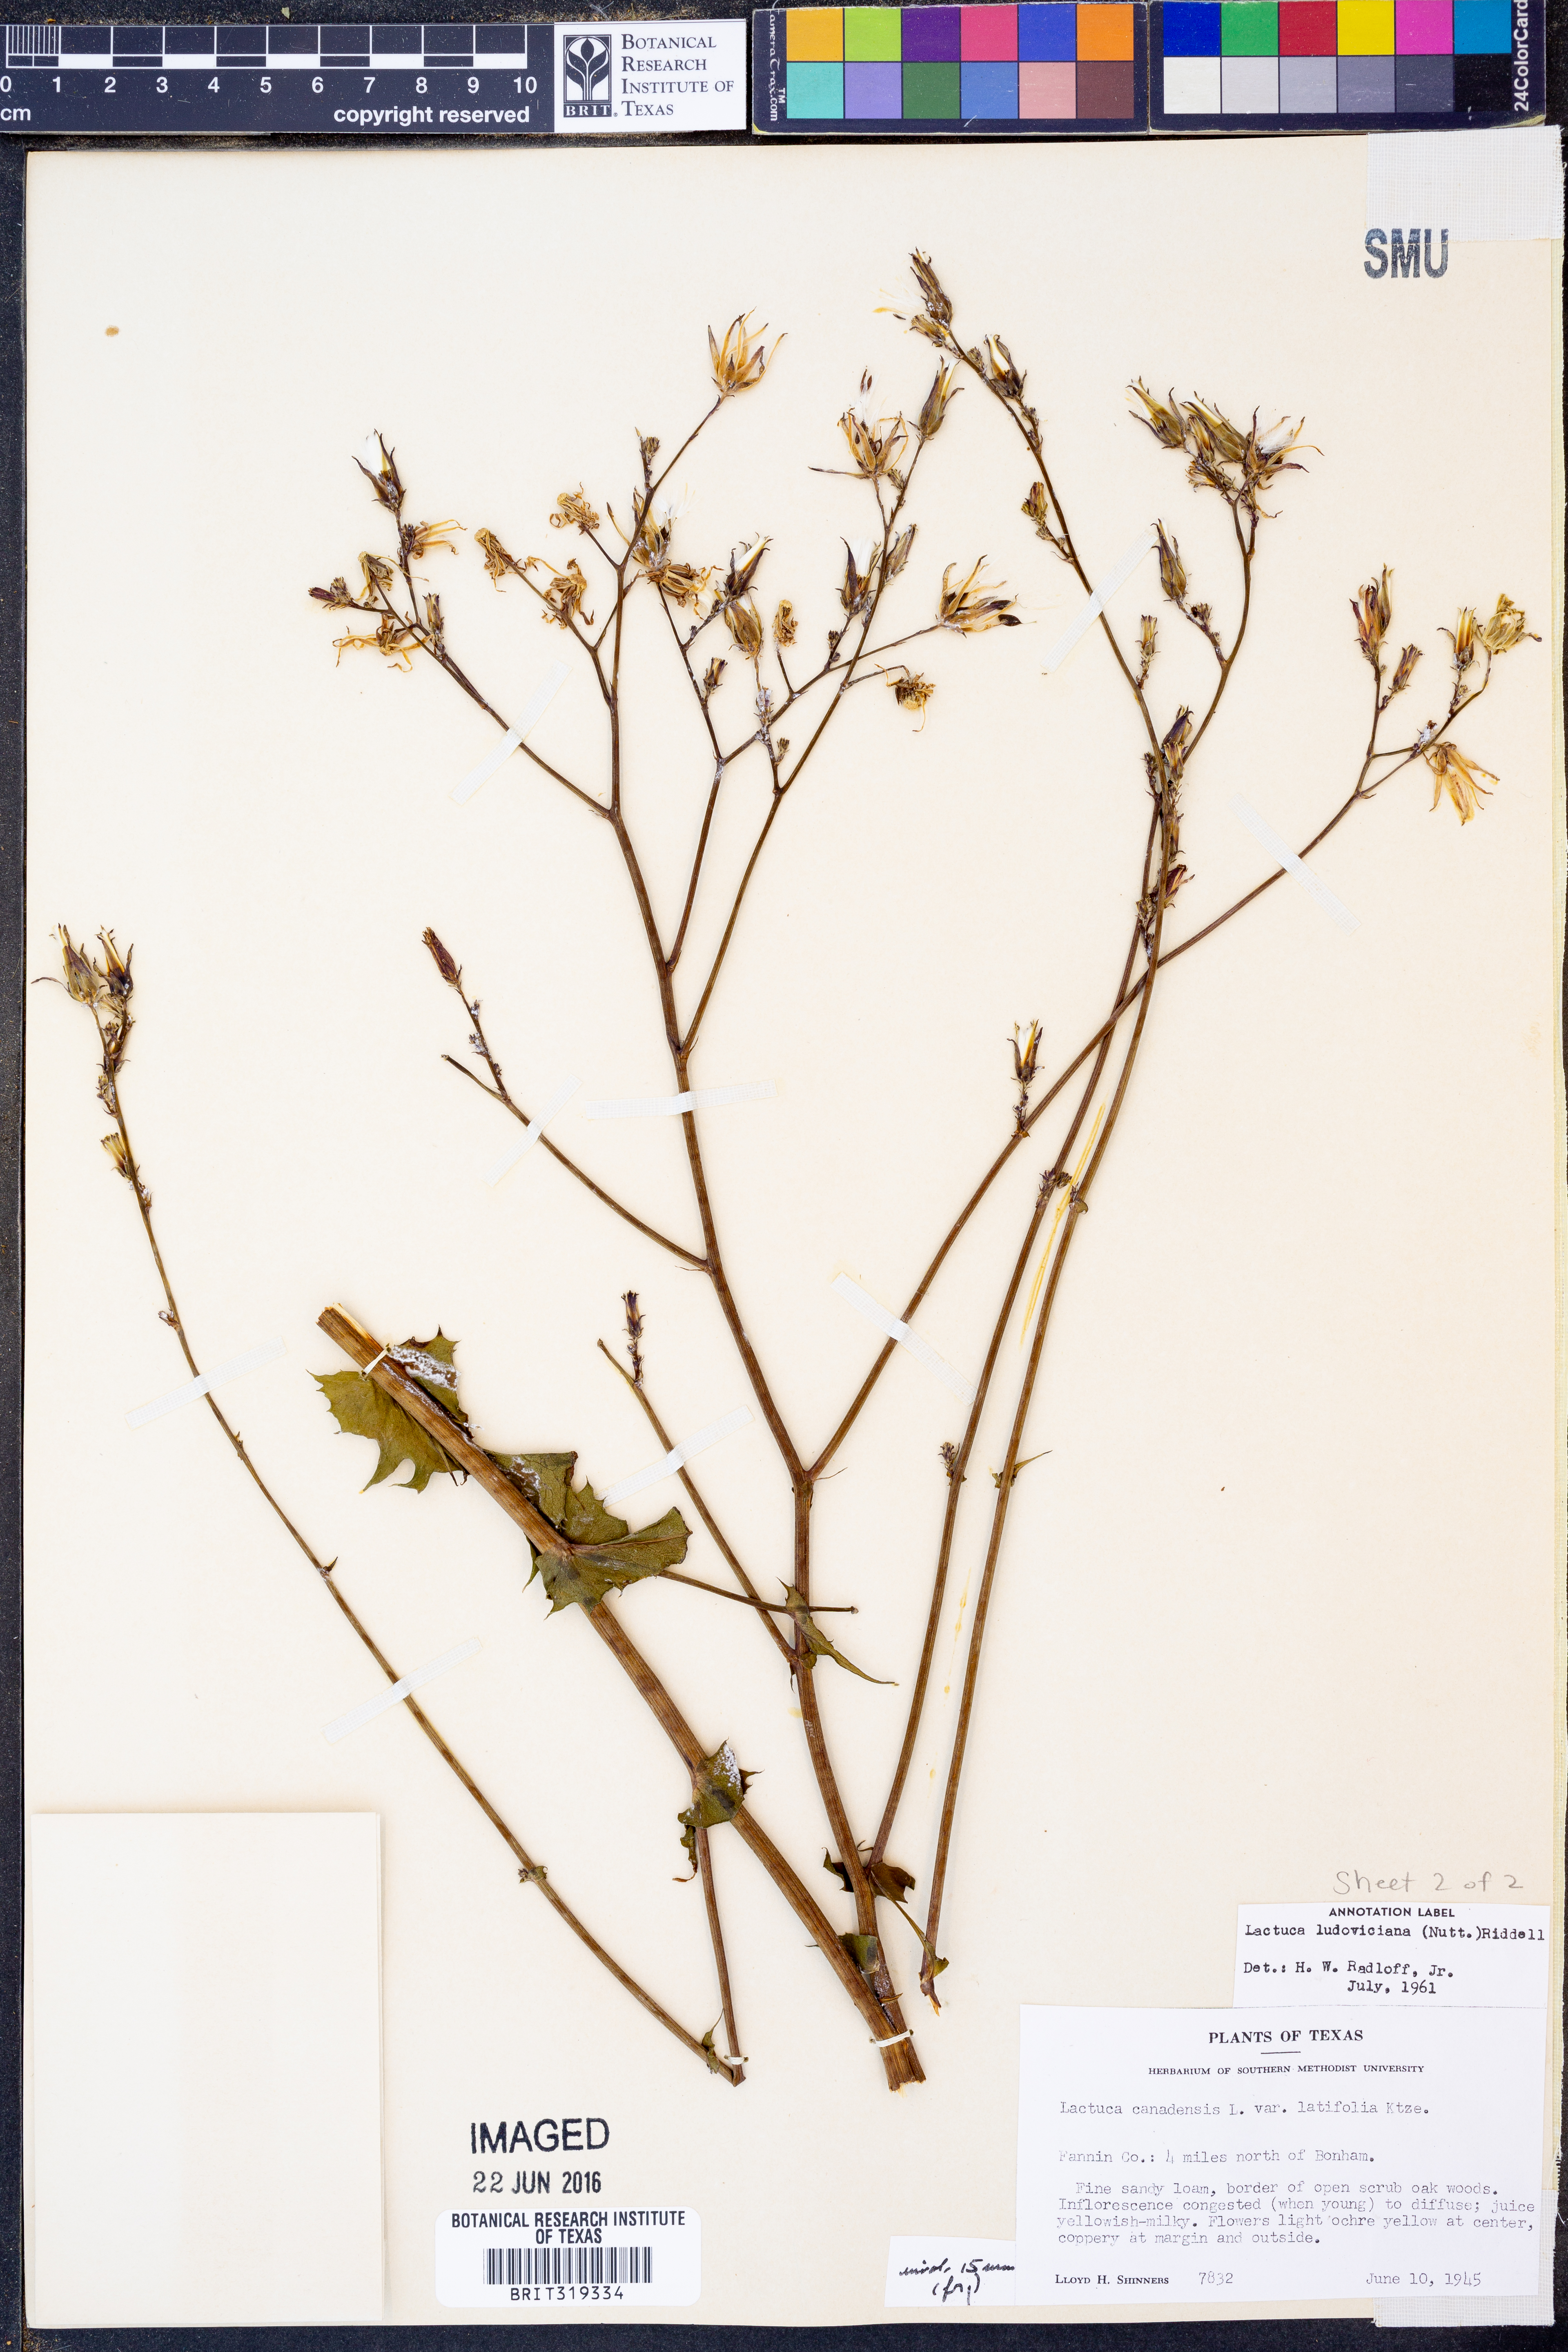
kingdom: Plantae
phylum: Tracheophyta
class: Magnoliopsida
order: Asterales
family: Asteraceae
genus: Lactuca
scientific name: Lactuca ludoviciana
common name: Louisiana lettuce
